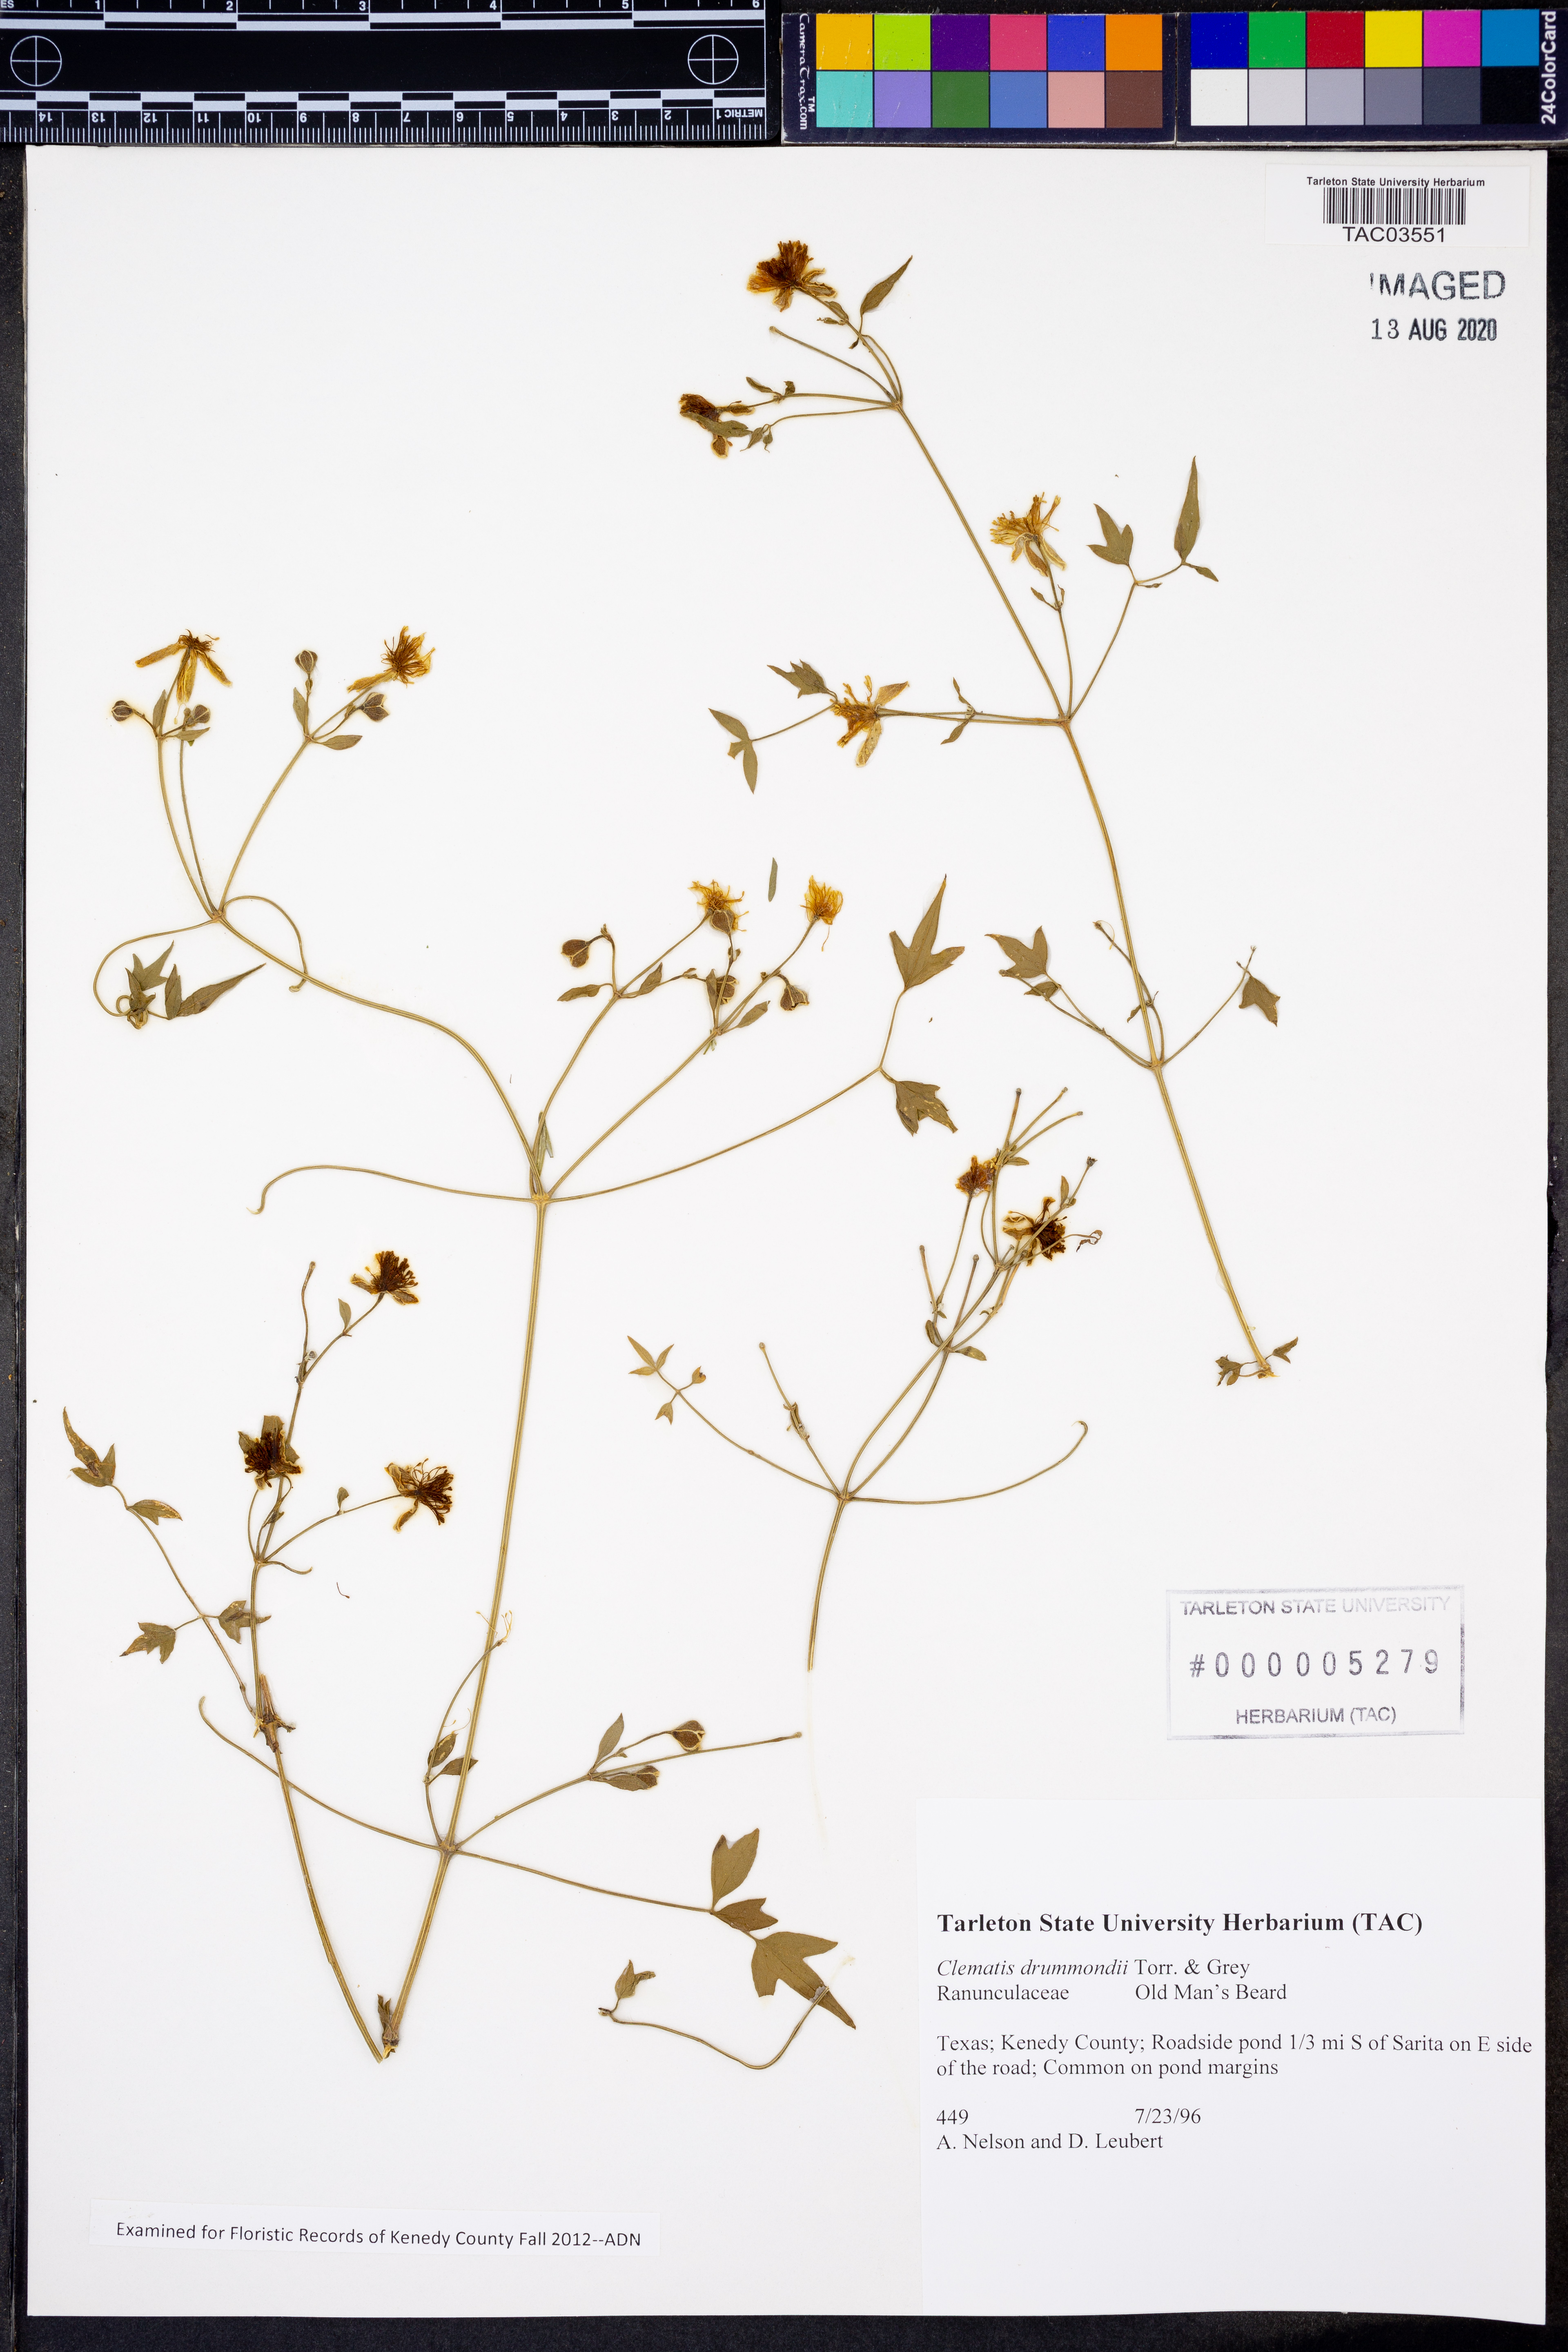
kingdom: Plantae
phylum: Tracheophyta
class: Magnoliopsida
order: Ranunculales
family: Ranunculaceae
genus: Clematis
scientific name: Clematis drummondii
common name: Texas virgin's bower
